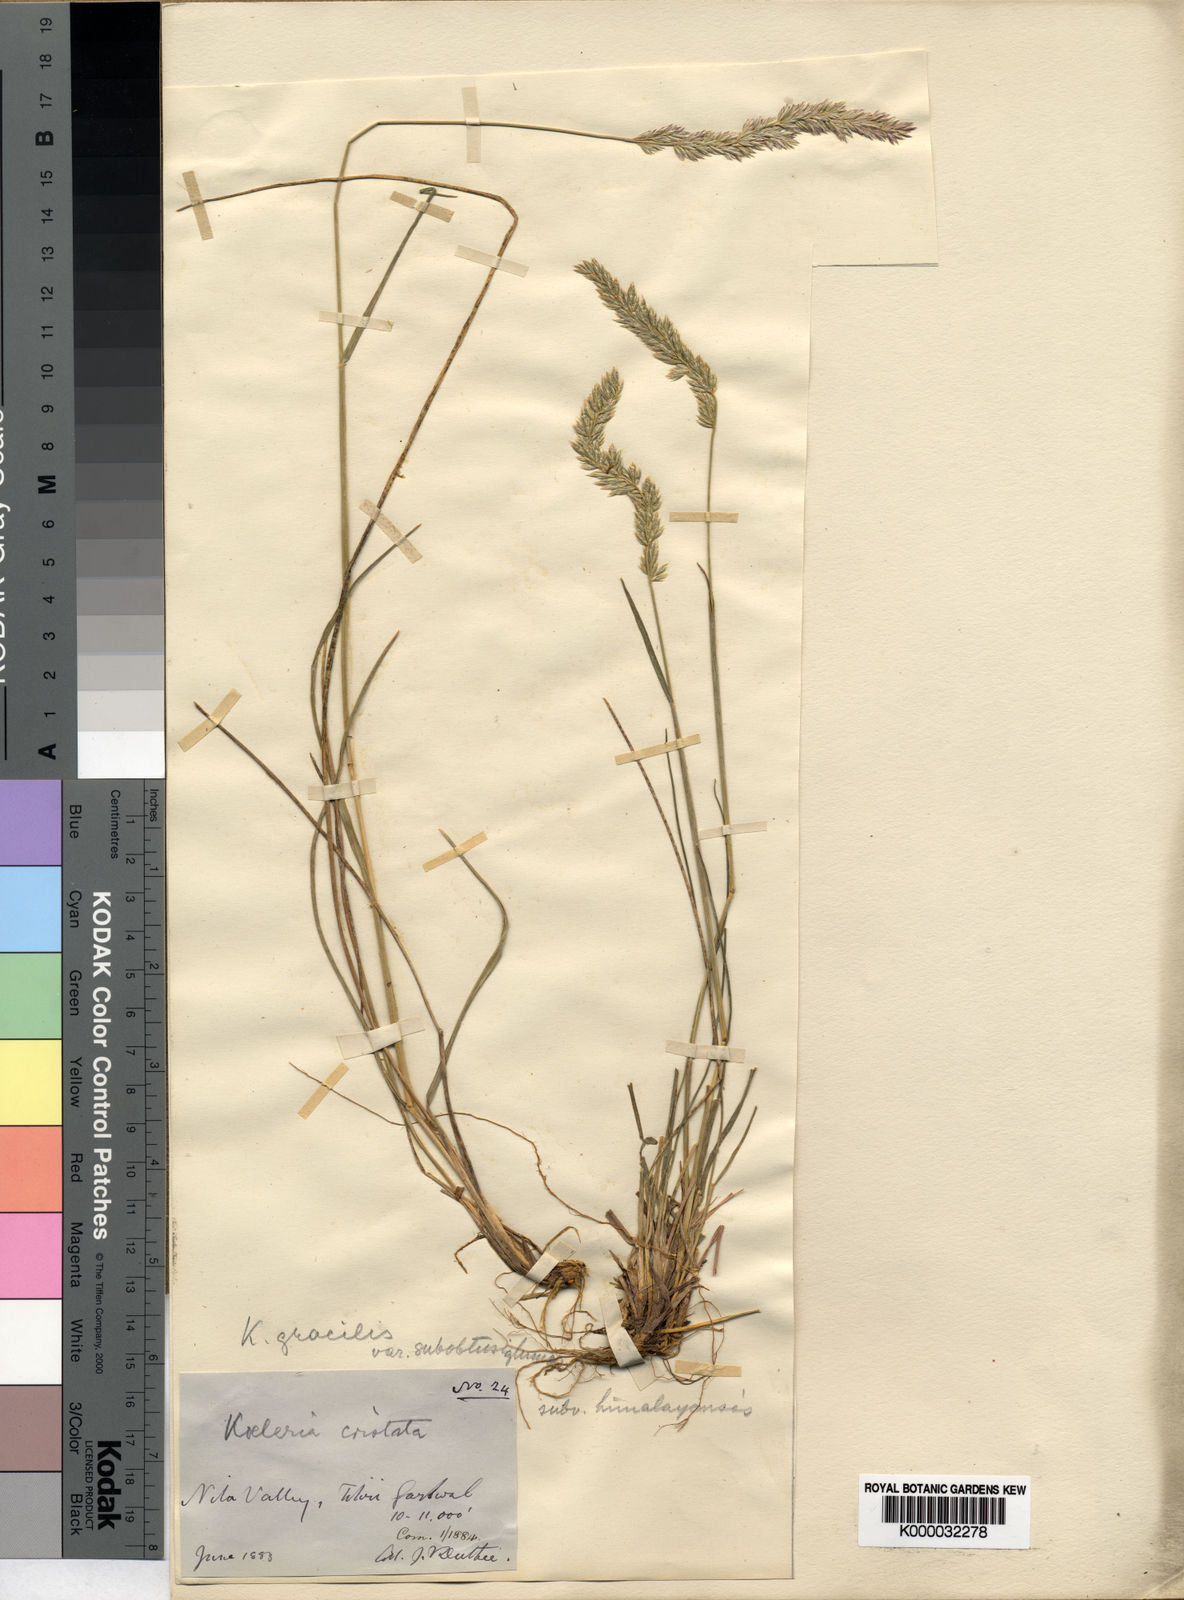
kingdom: Plantae
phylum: Tracheophyta
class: Liliopsida
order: Poales
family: Poaceae
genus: Koeleria
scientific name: Koeleria macrantha
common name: Crested hair-grass
